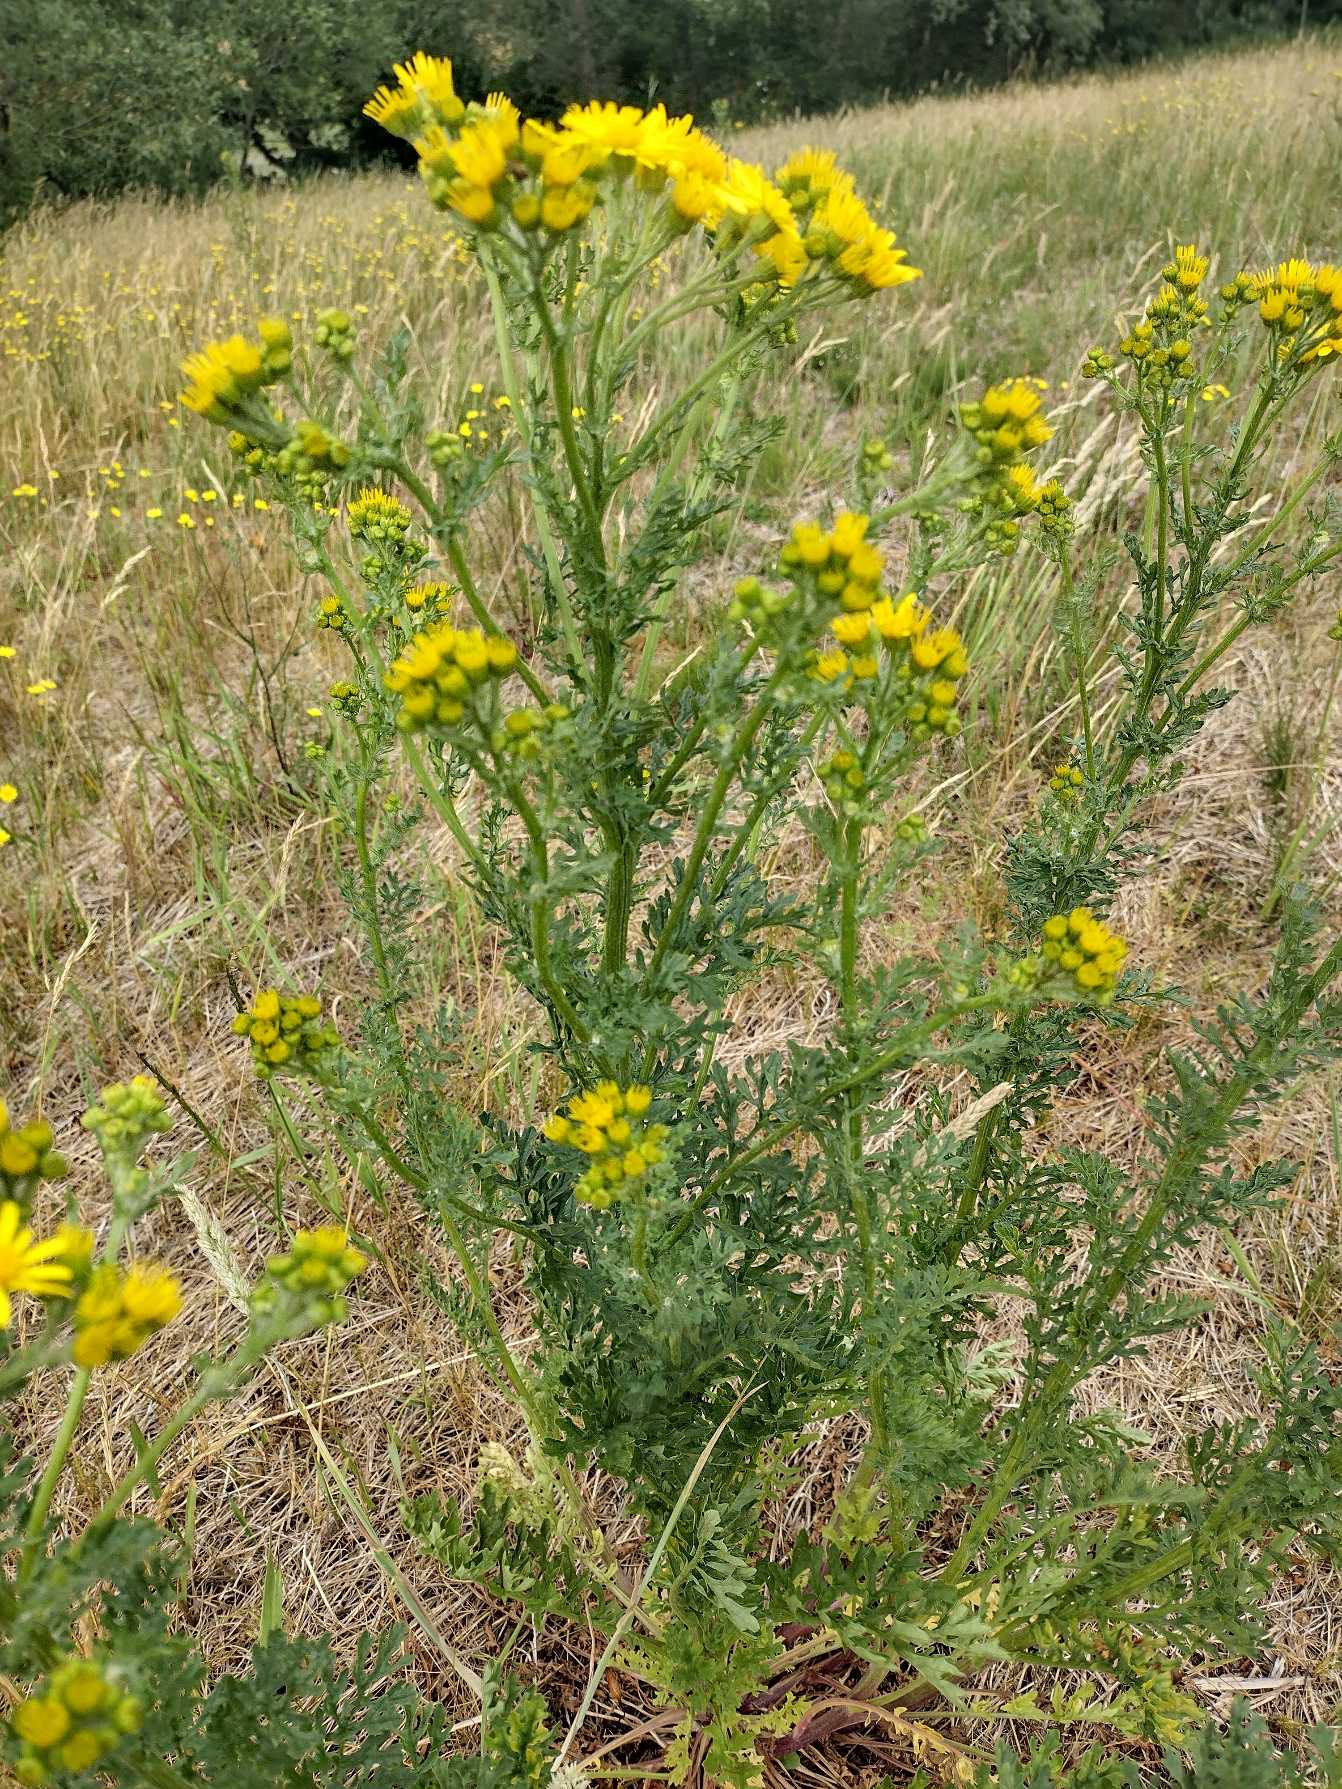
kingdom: Plantae
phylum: Tracheophyta
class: Magnoliopsida
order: Asterales
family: Asteraceae
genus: Jacobaea
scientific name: Jacobaea vulgaris
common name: Eng-brandbæger
